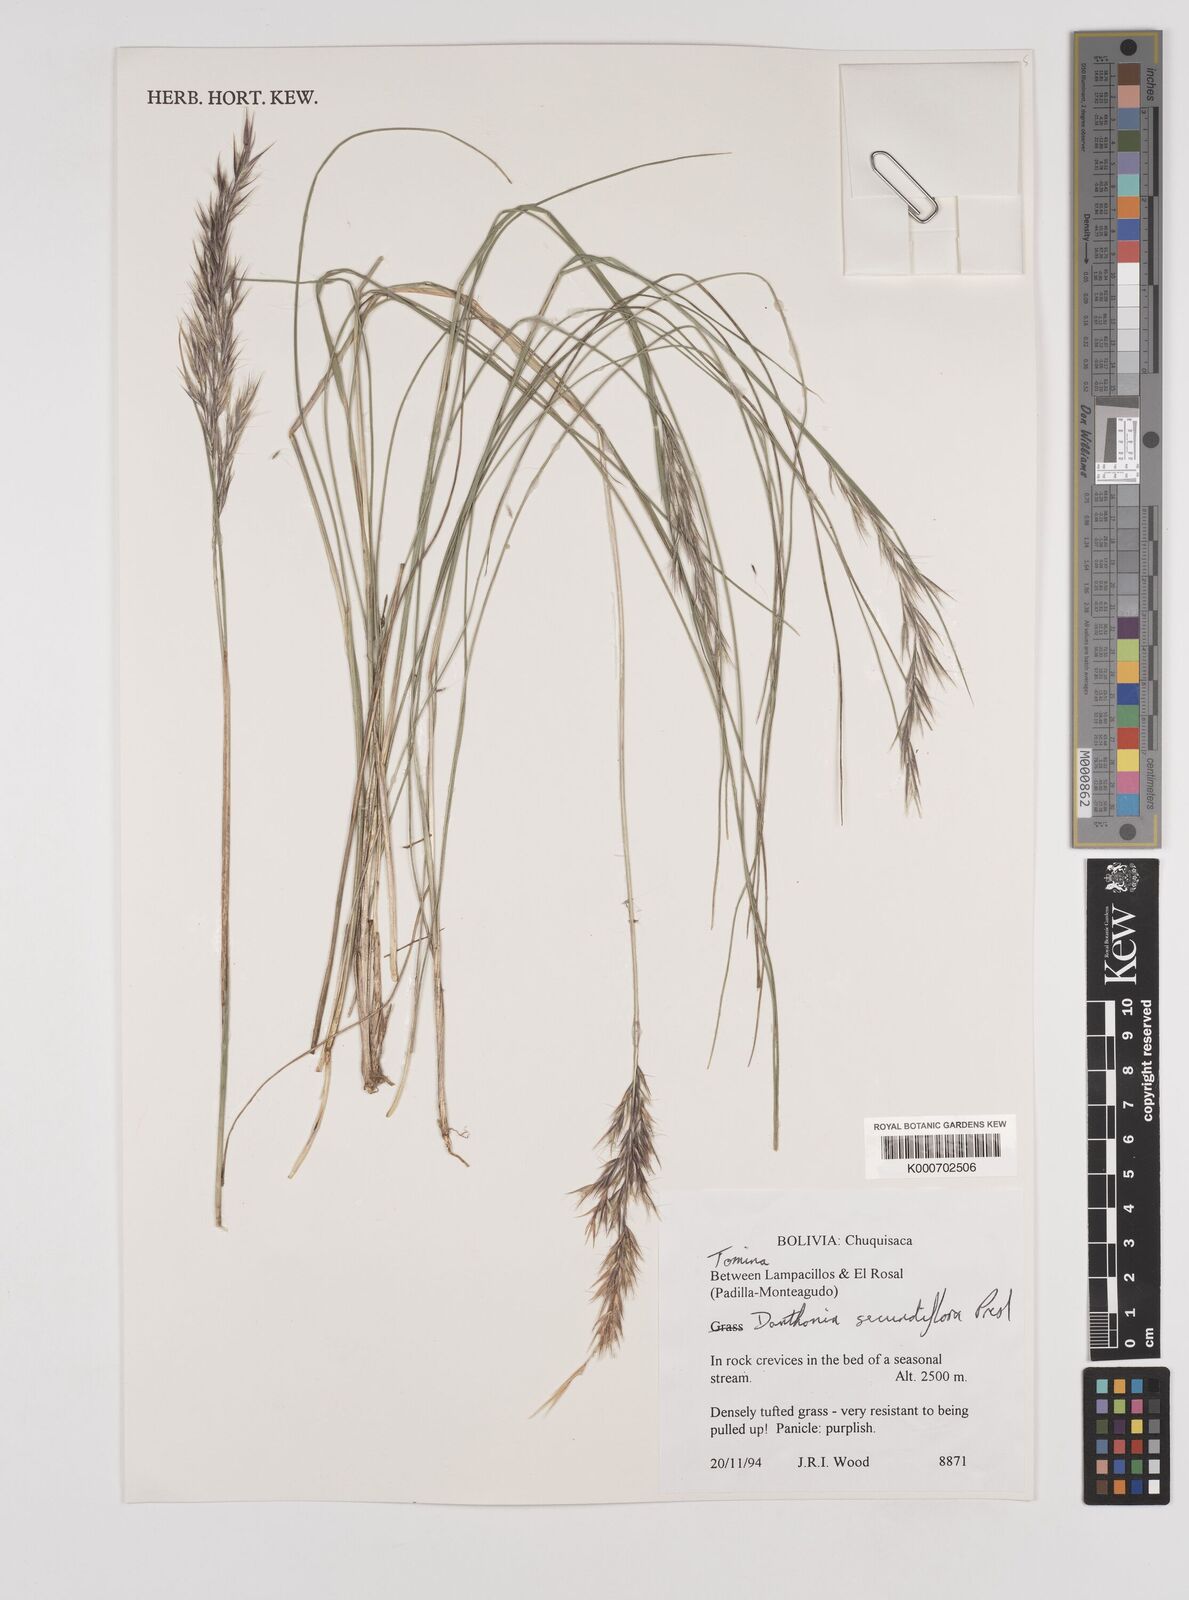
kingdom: Plantae
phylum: Tracheophyta
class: Liliopsida
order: Poales
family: Poaceae
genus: Danthonia
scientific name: Danthonia secundiflora
